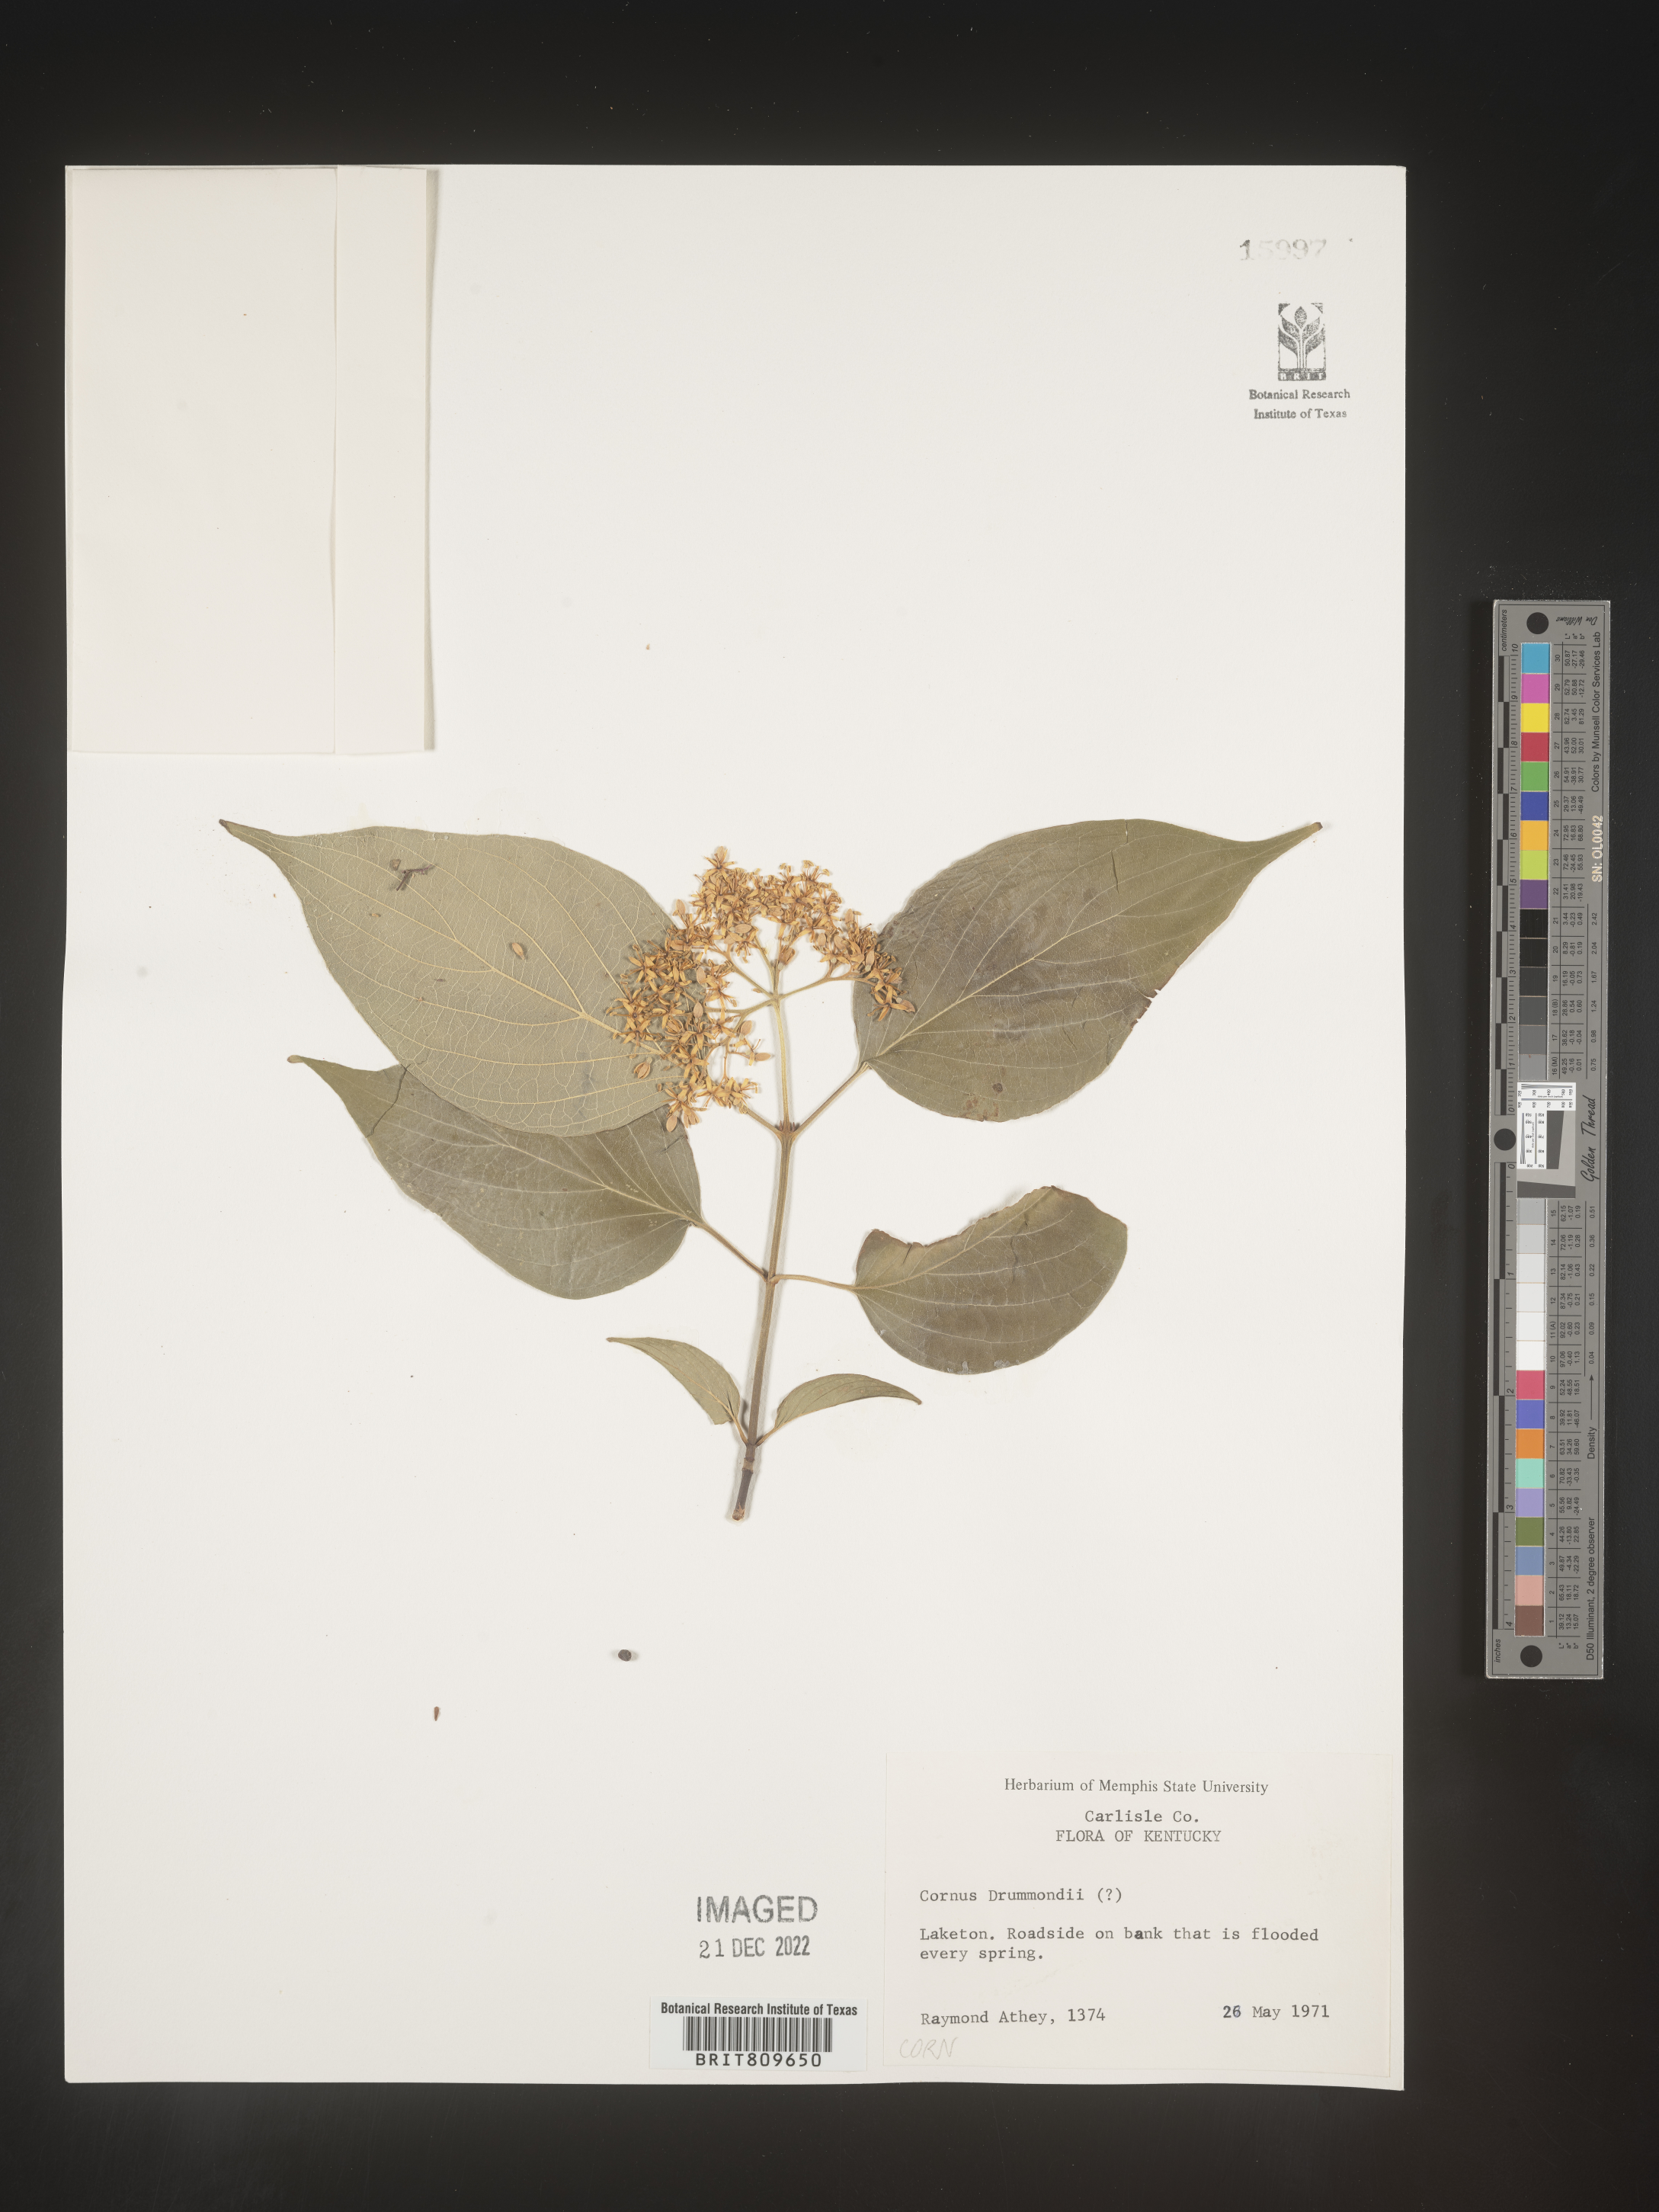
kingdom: Plantae
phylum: Tracheophyta
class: Magnoliopsida
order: Cornales
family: Cornaceae
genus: Cornus
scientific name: Cornus drummondii
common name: Rough-leaf dogwood
